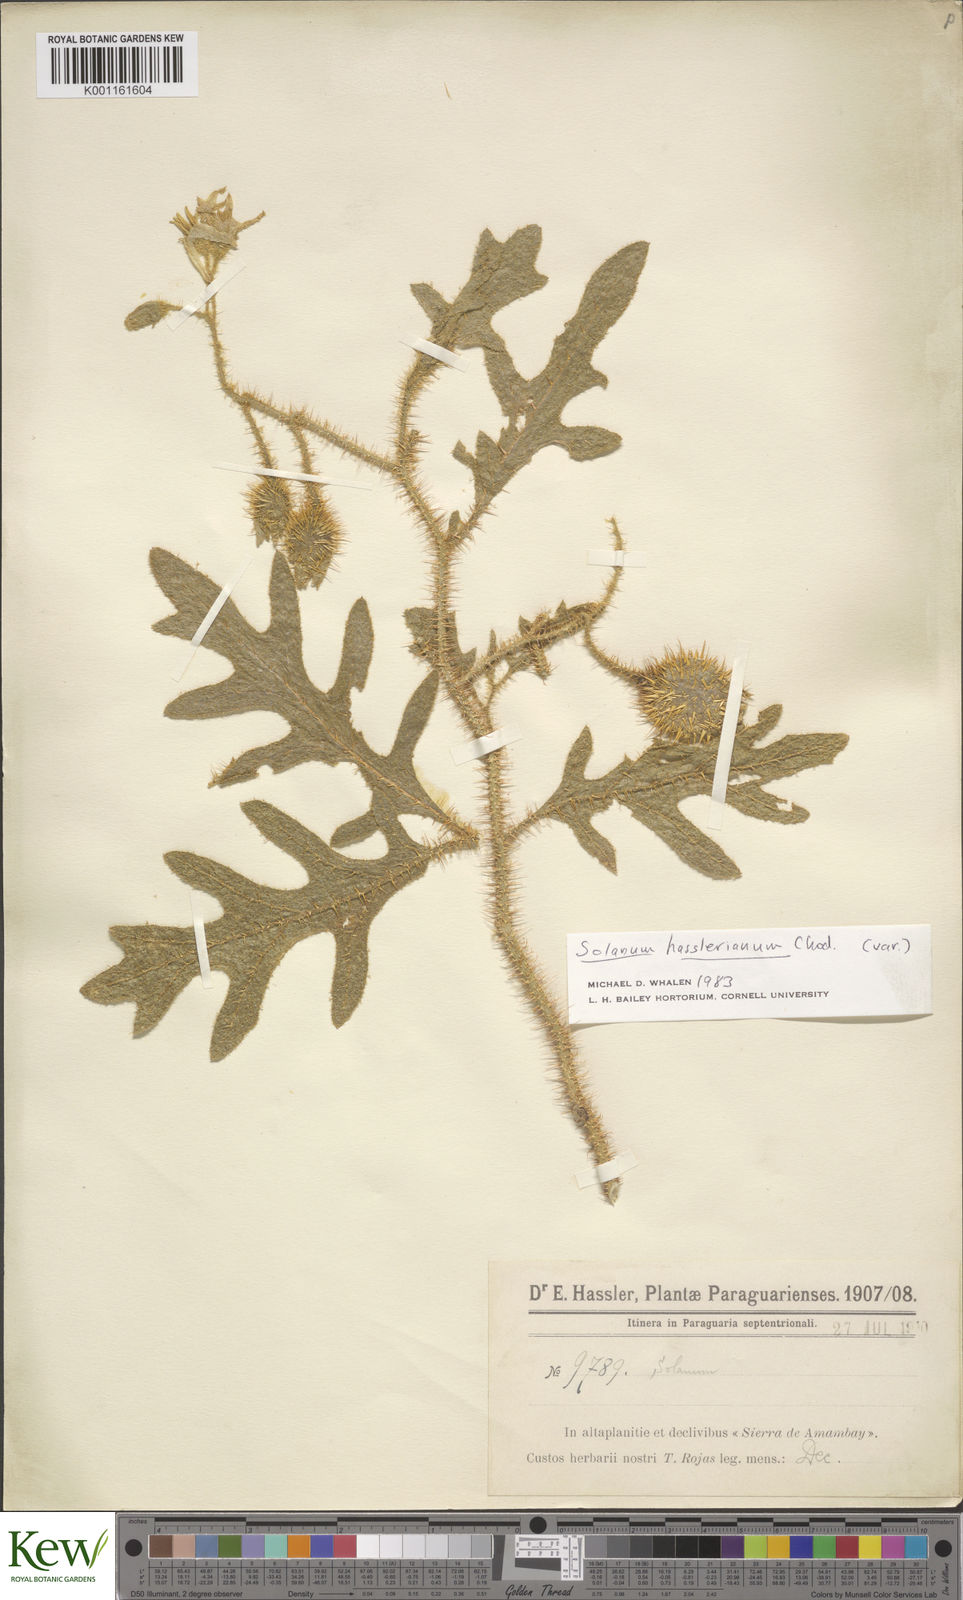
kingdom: Plantae
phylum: Tracheophyta
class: Magnoliopsida
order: Solanales
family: Solanaceae
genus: Solanum
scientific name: Solanum hasslerianum
